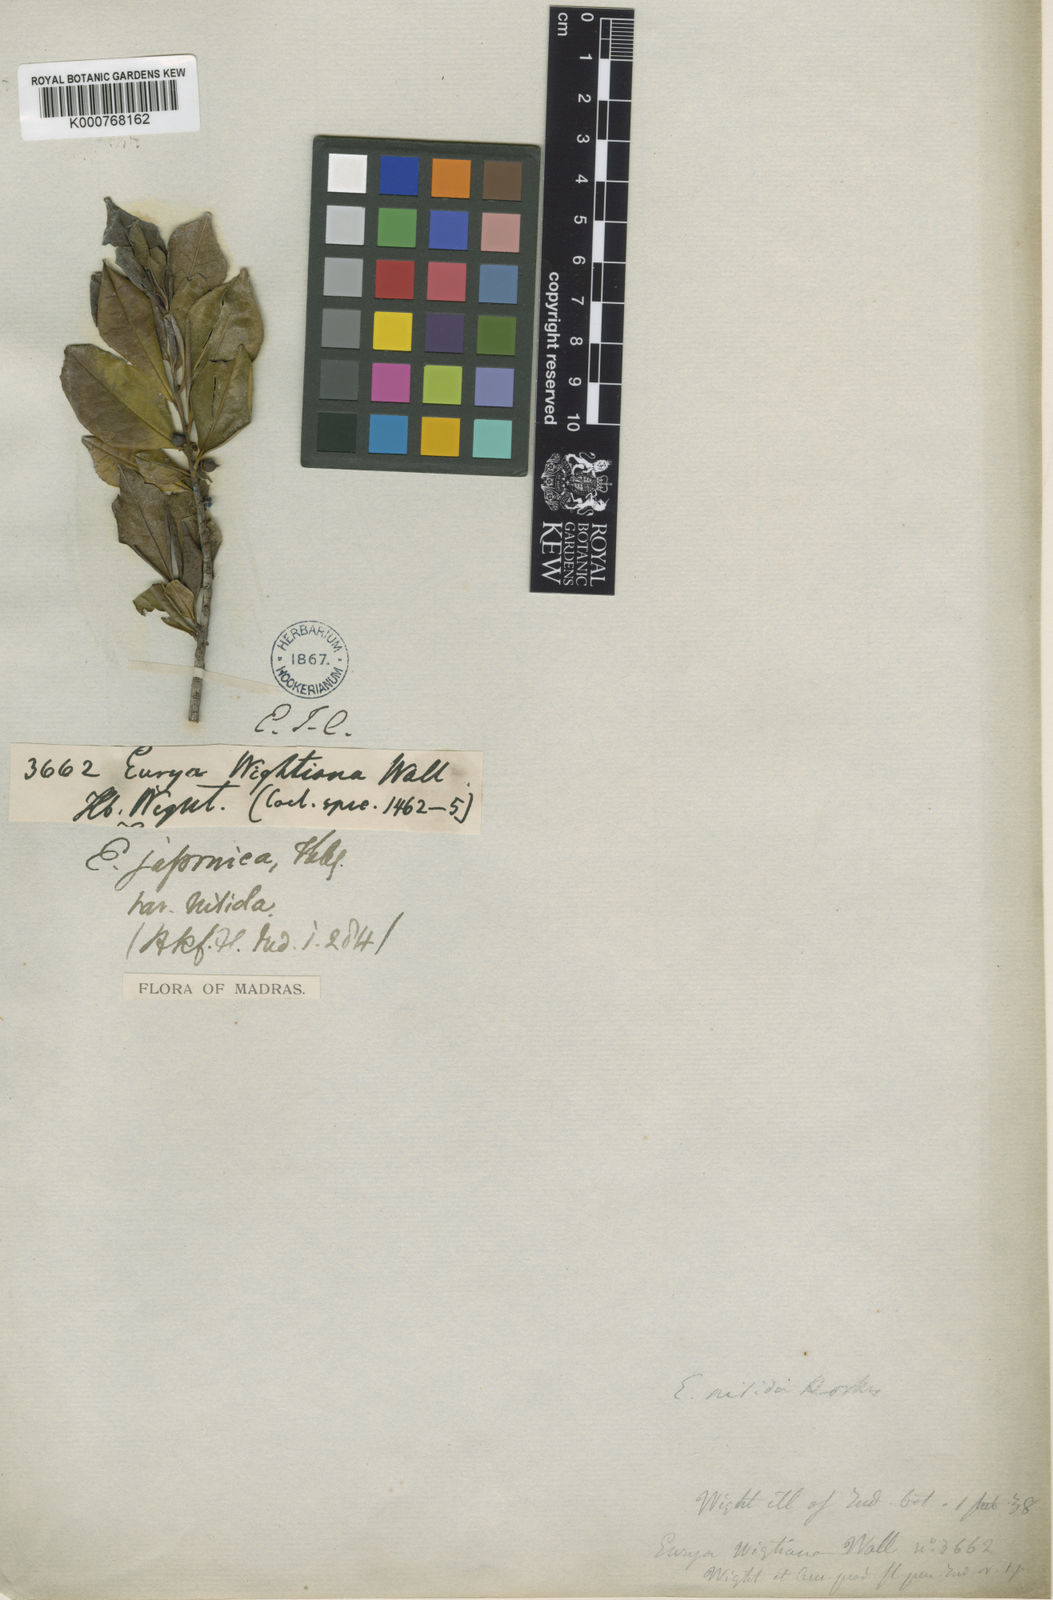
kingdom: Plantae
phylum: Tracheophyta
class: Magnoliopsida
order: Ericales
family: Pentaphylacaceae
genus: Eurya
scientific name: Eurya nitida
